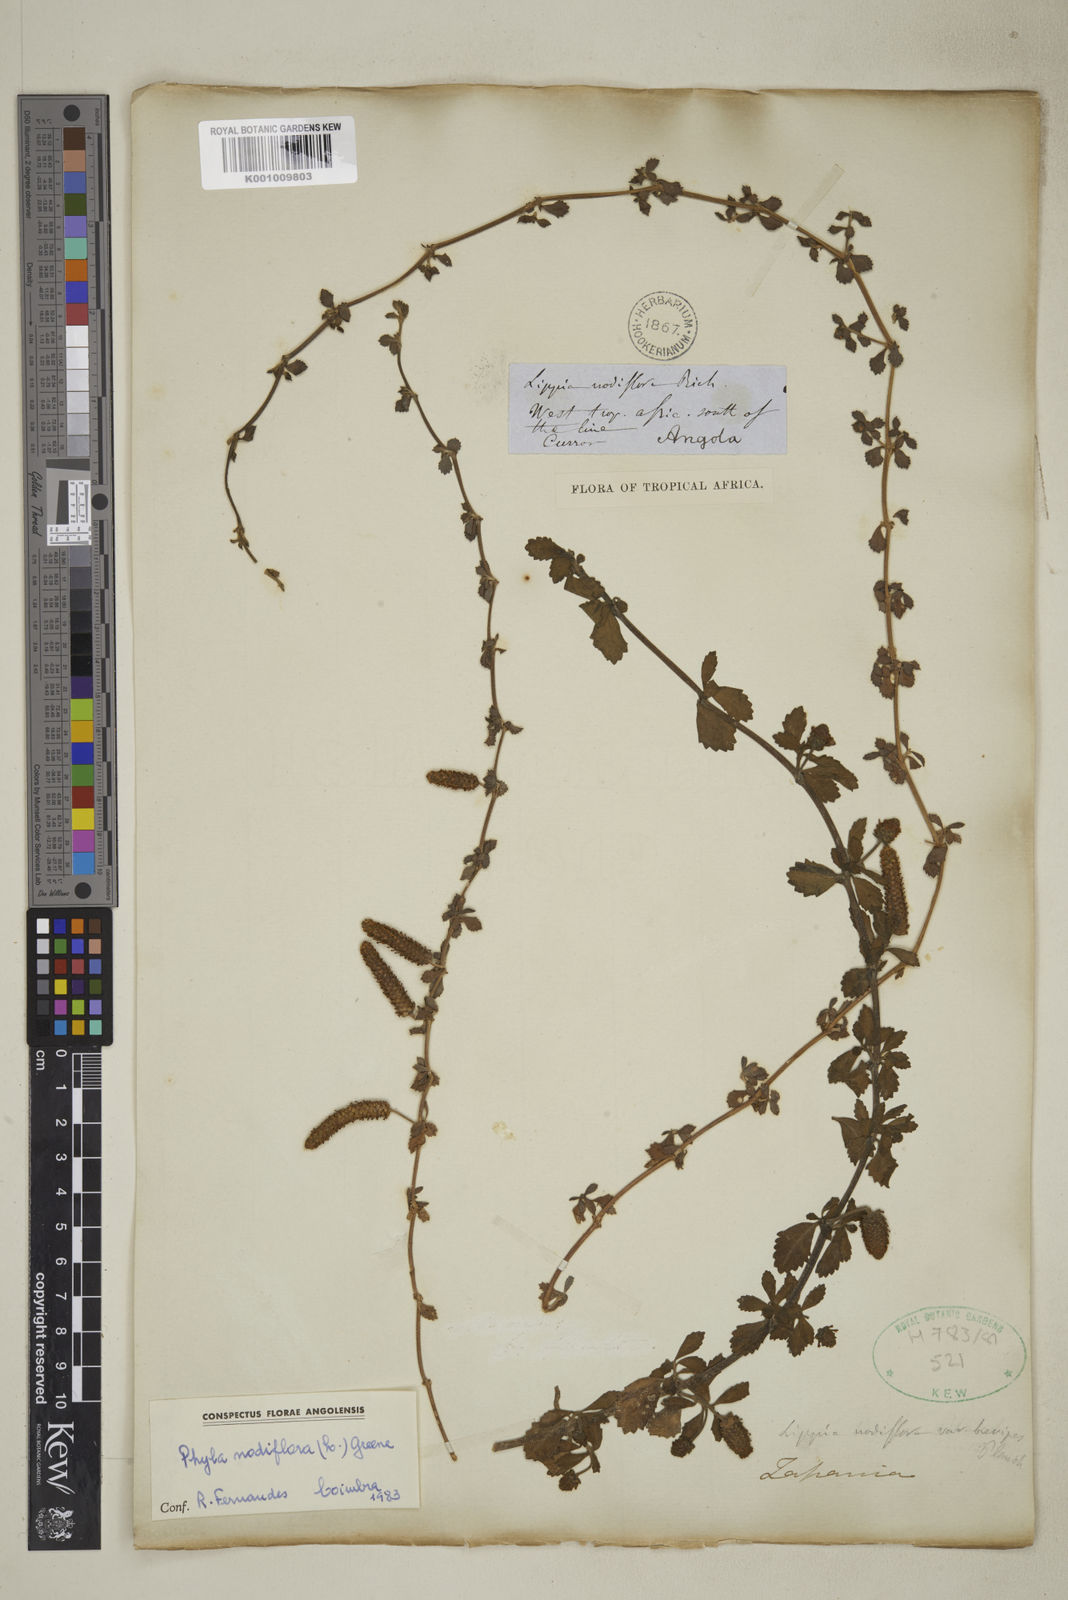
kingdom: Plantae
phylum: Tracheophyta
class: Magnoliopsida
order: Lamiales
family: Verbenaceae
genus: Phyla
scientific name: Phyla nodiflora
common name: Frogfruit
